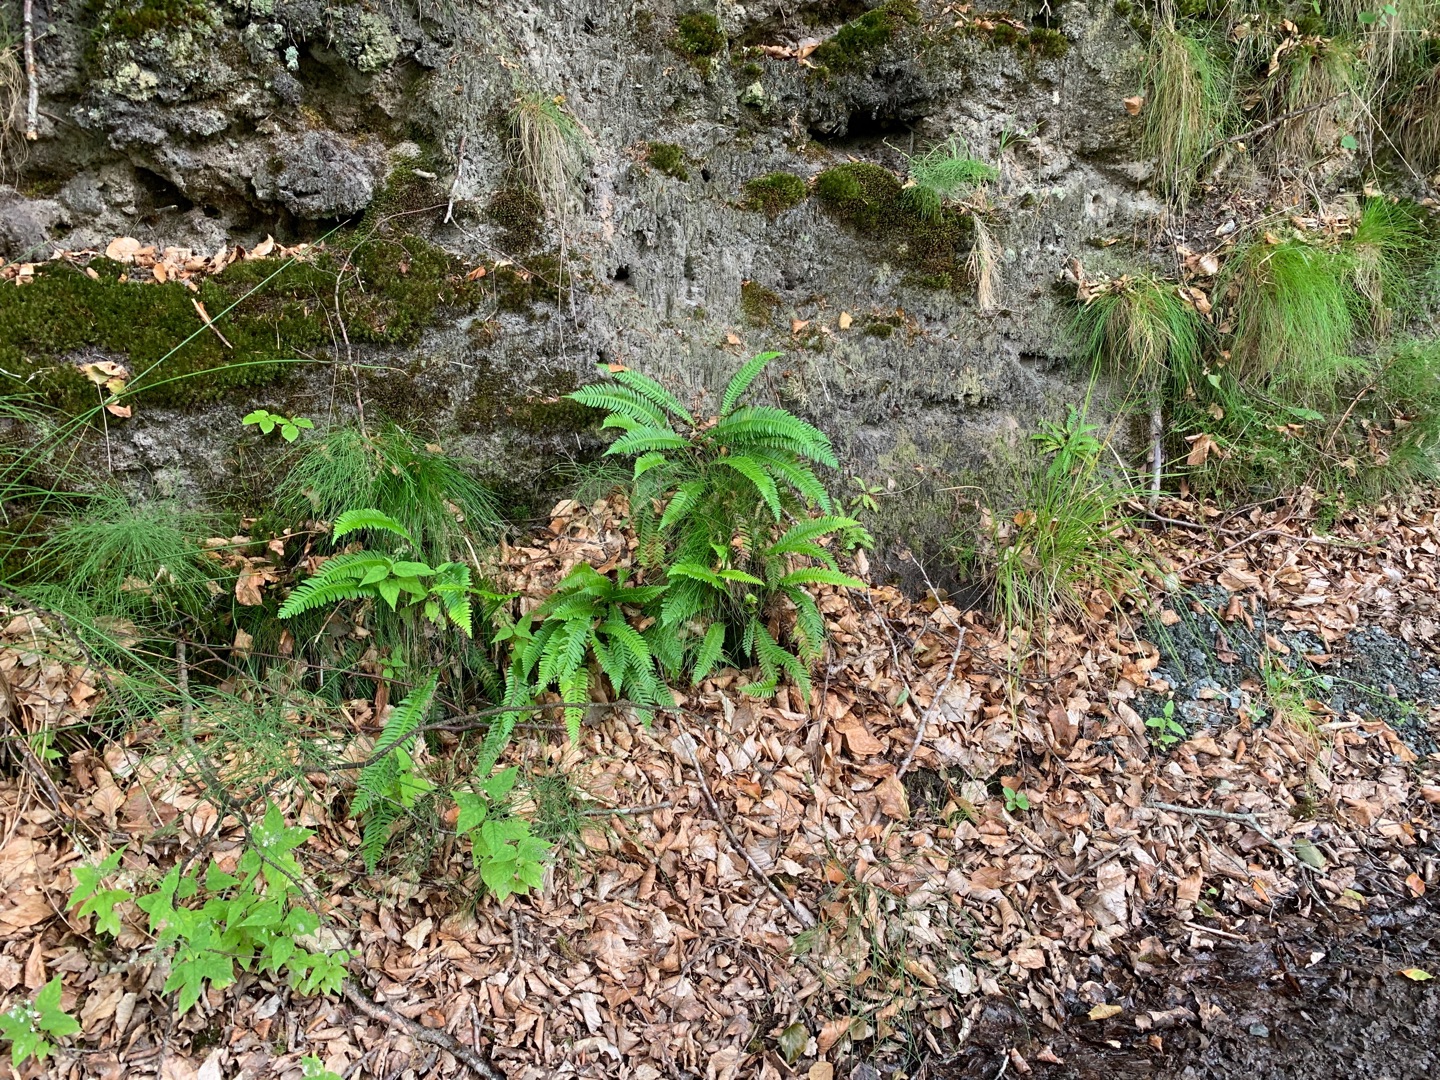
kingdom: Plantae
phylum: Tracheophyta
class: Polypodiopsida
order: Polypodiales
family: Blechnaceae
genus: Struthiopteris
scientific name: Struthiopteris spicant
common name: Kambregne
